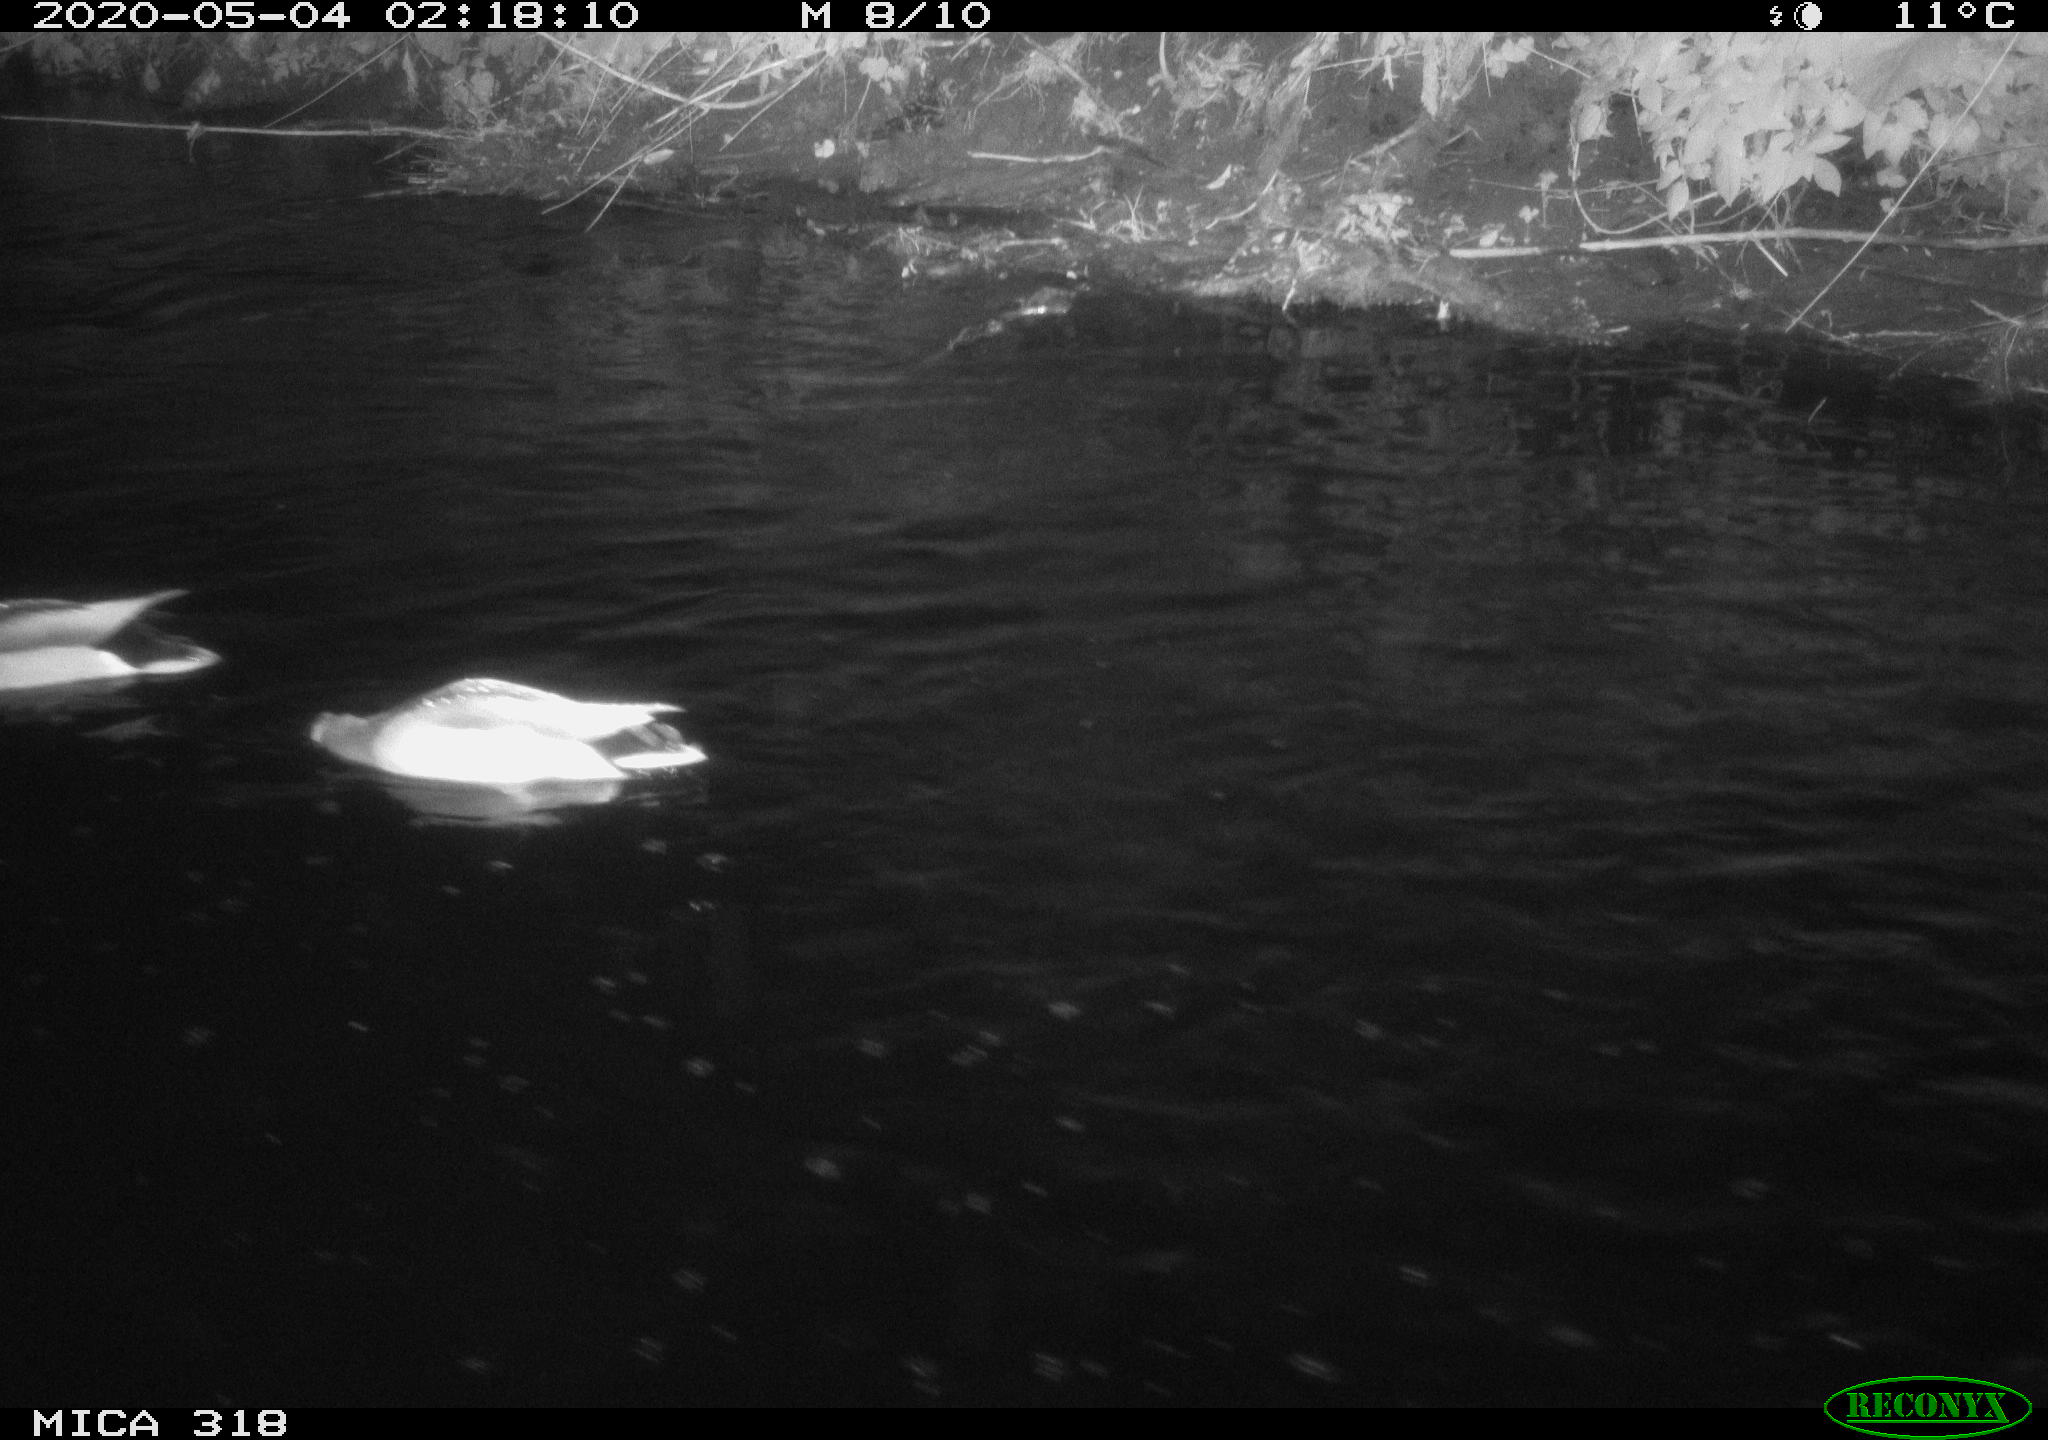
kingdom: Animalia
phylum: Chordata
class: Aves
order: Anseriformes
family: Anatidae
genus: Anas
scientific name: Anas platyrhynchos
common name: Mallard
